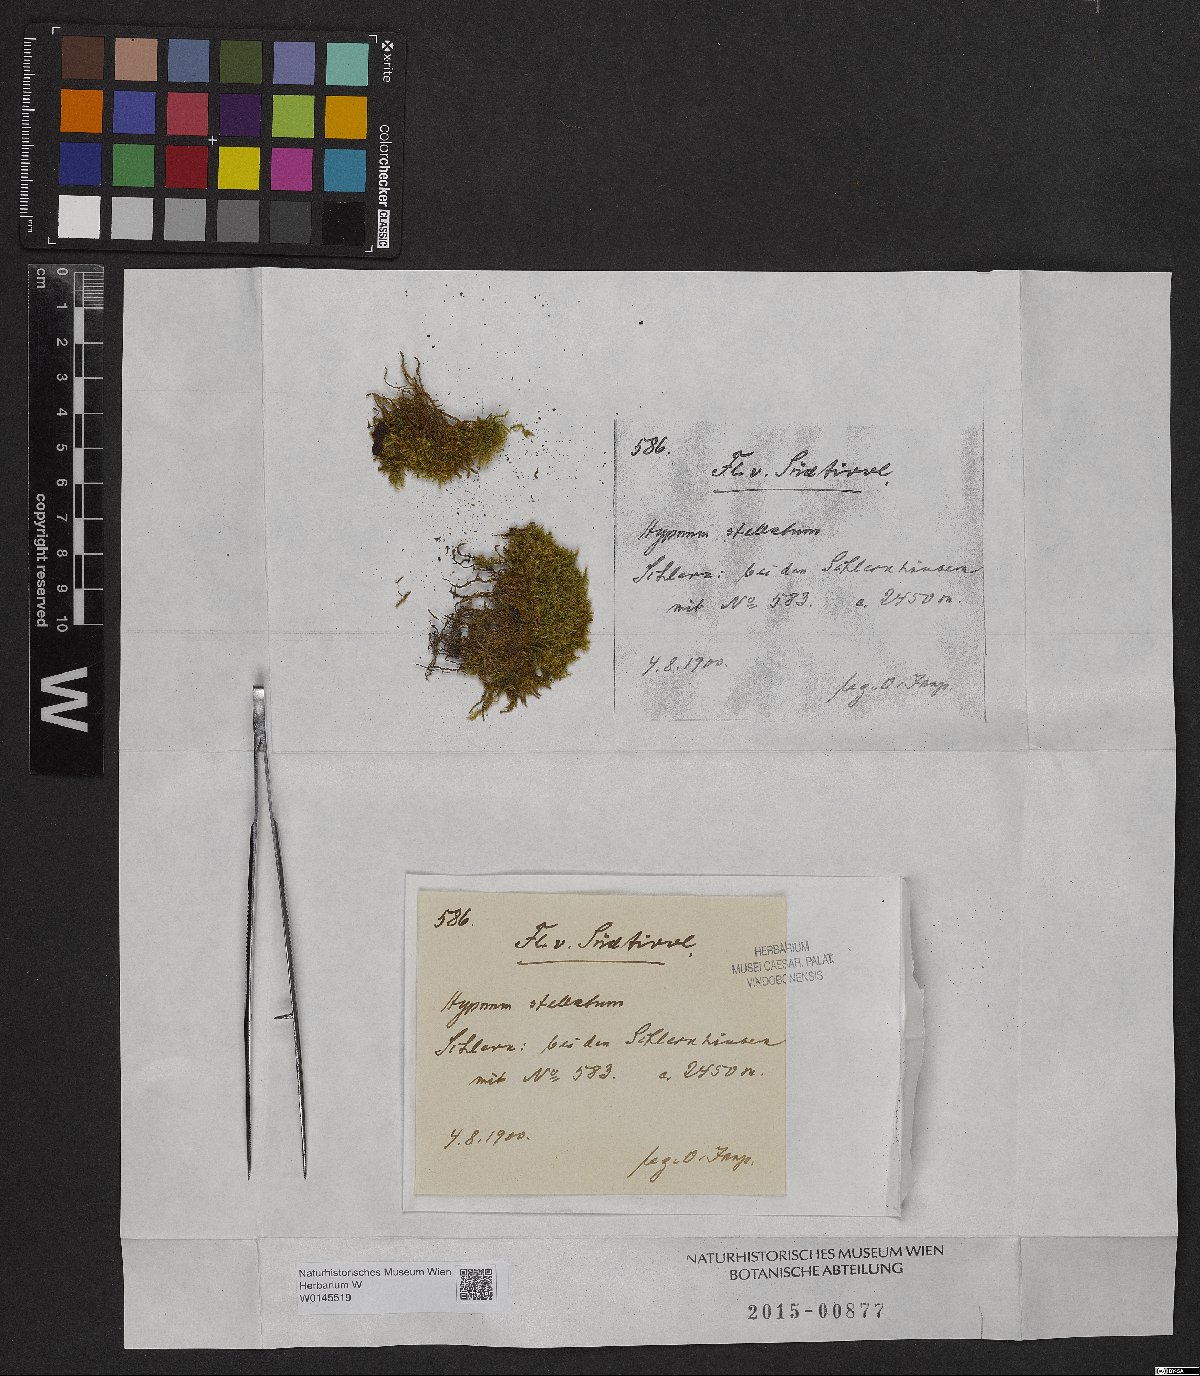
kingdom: Plantae
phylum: Bryophyta
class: Bryopsida
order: Hypnales
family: Amblystegiaceae
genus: Campylium
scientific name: Campylium stellatum
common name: Yellow starry fen moss
